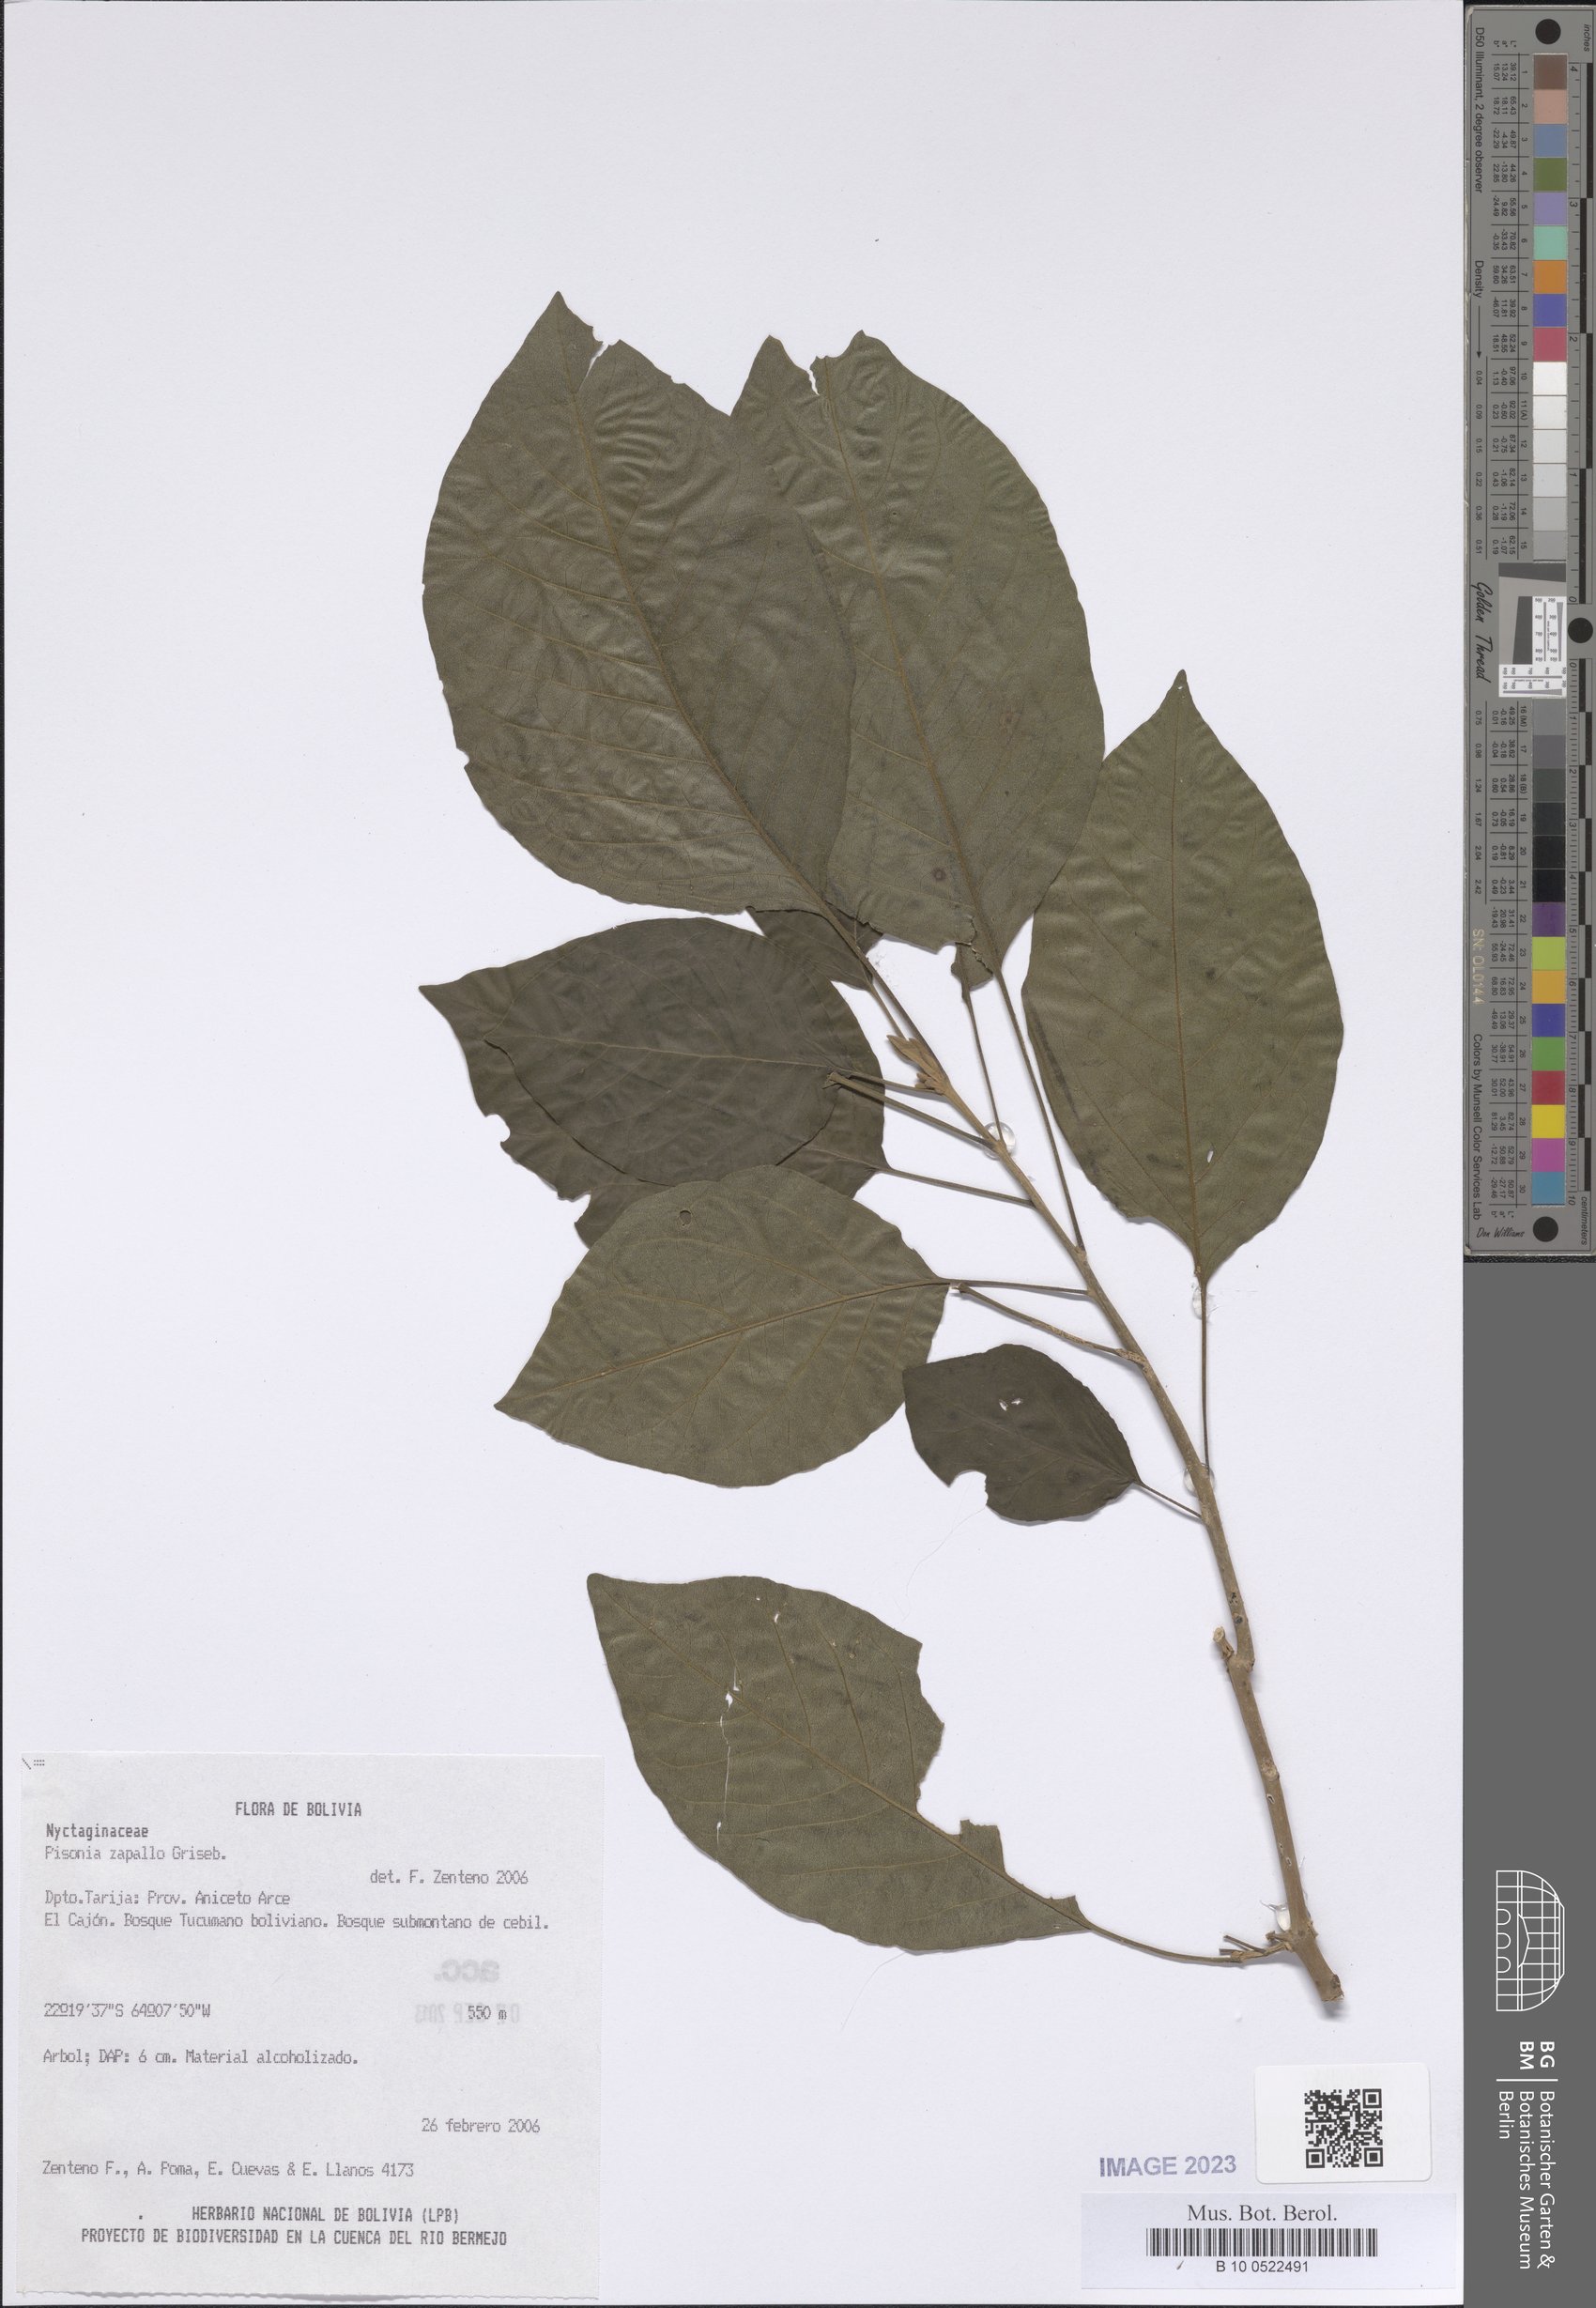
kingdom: Plantae
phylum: Tracheophyta
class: Magnoliopsida
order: Caryophyllales
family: Nyctaginaceae
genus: Pisonia
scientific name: Pisonia zapallo
